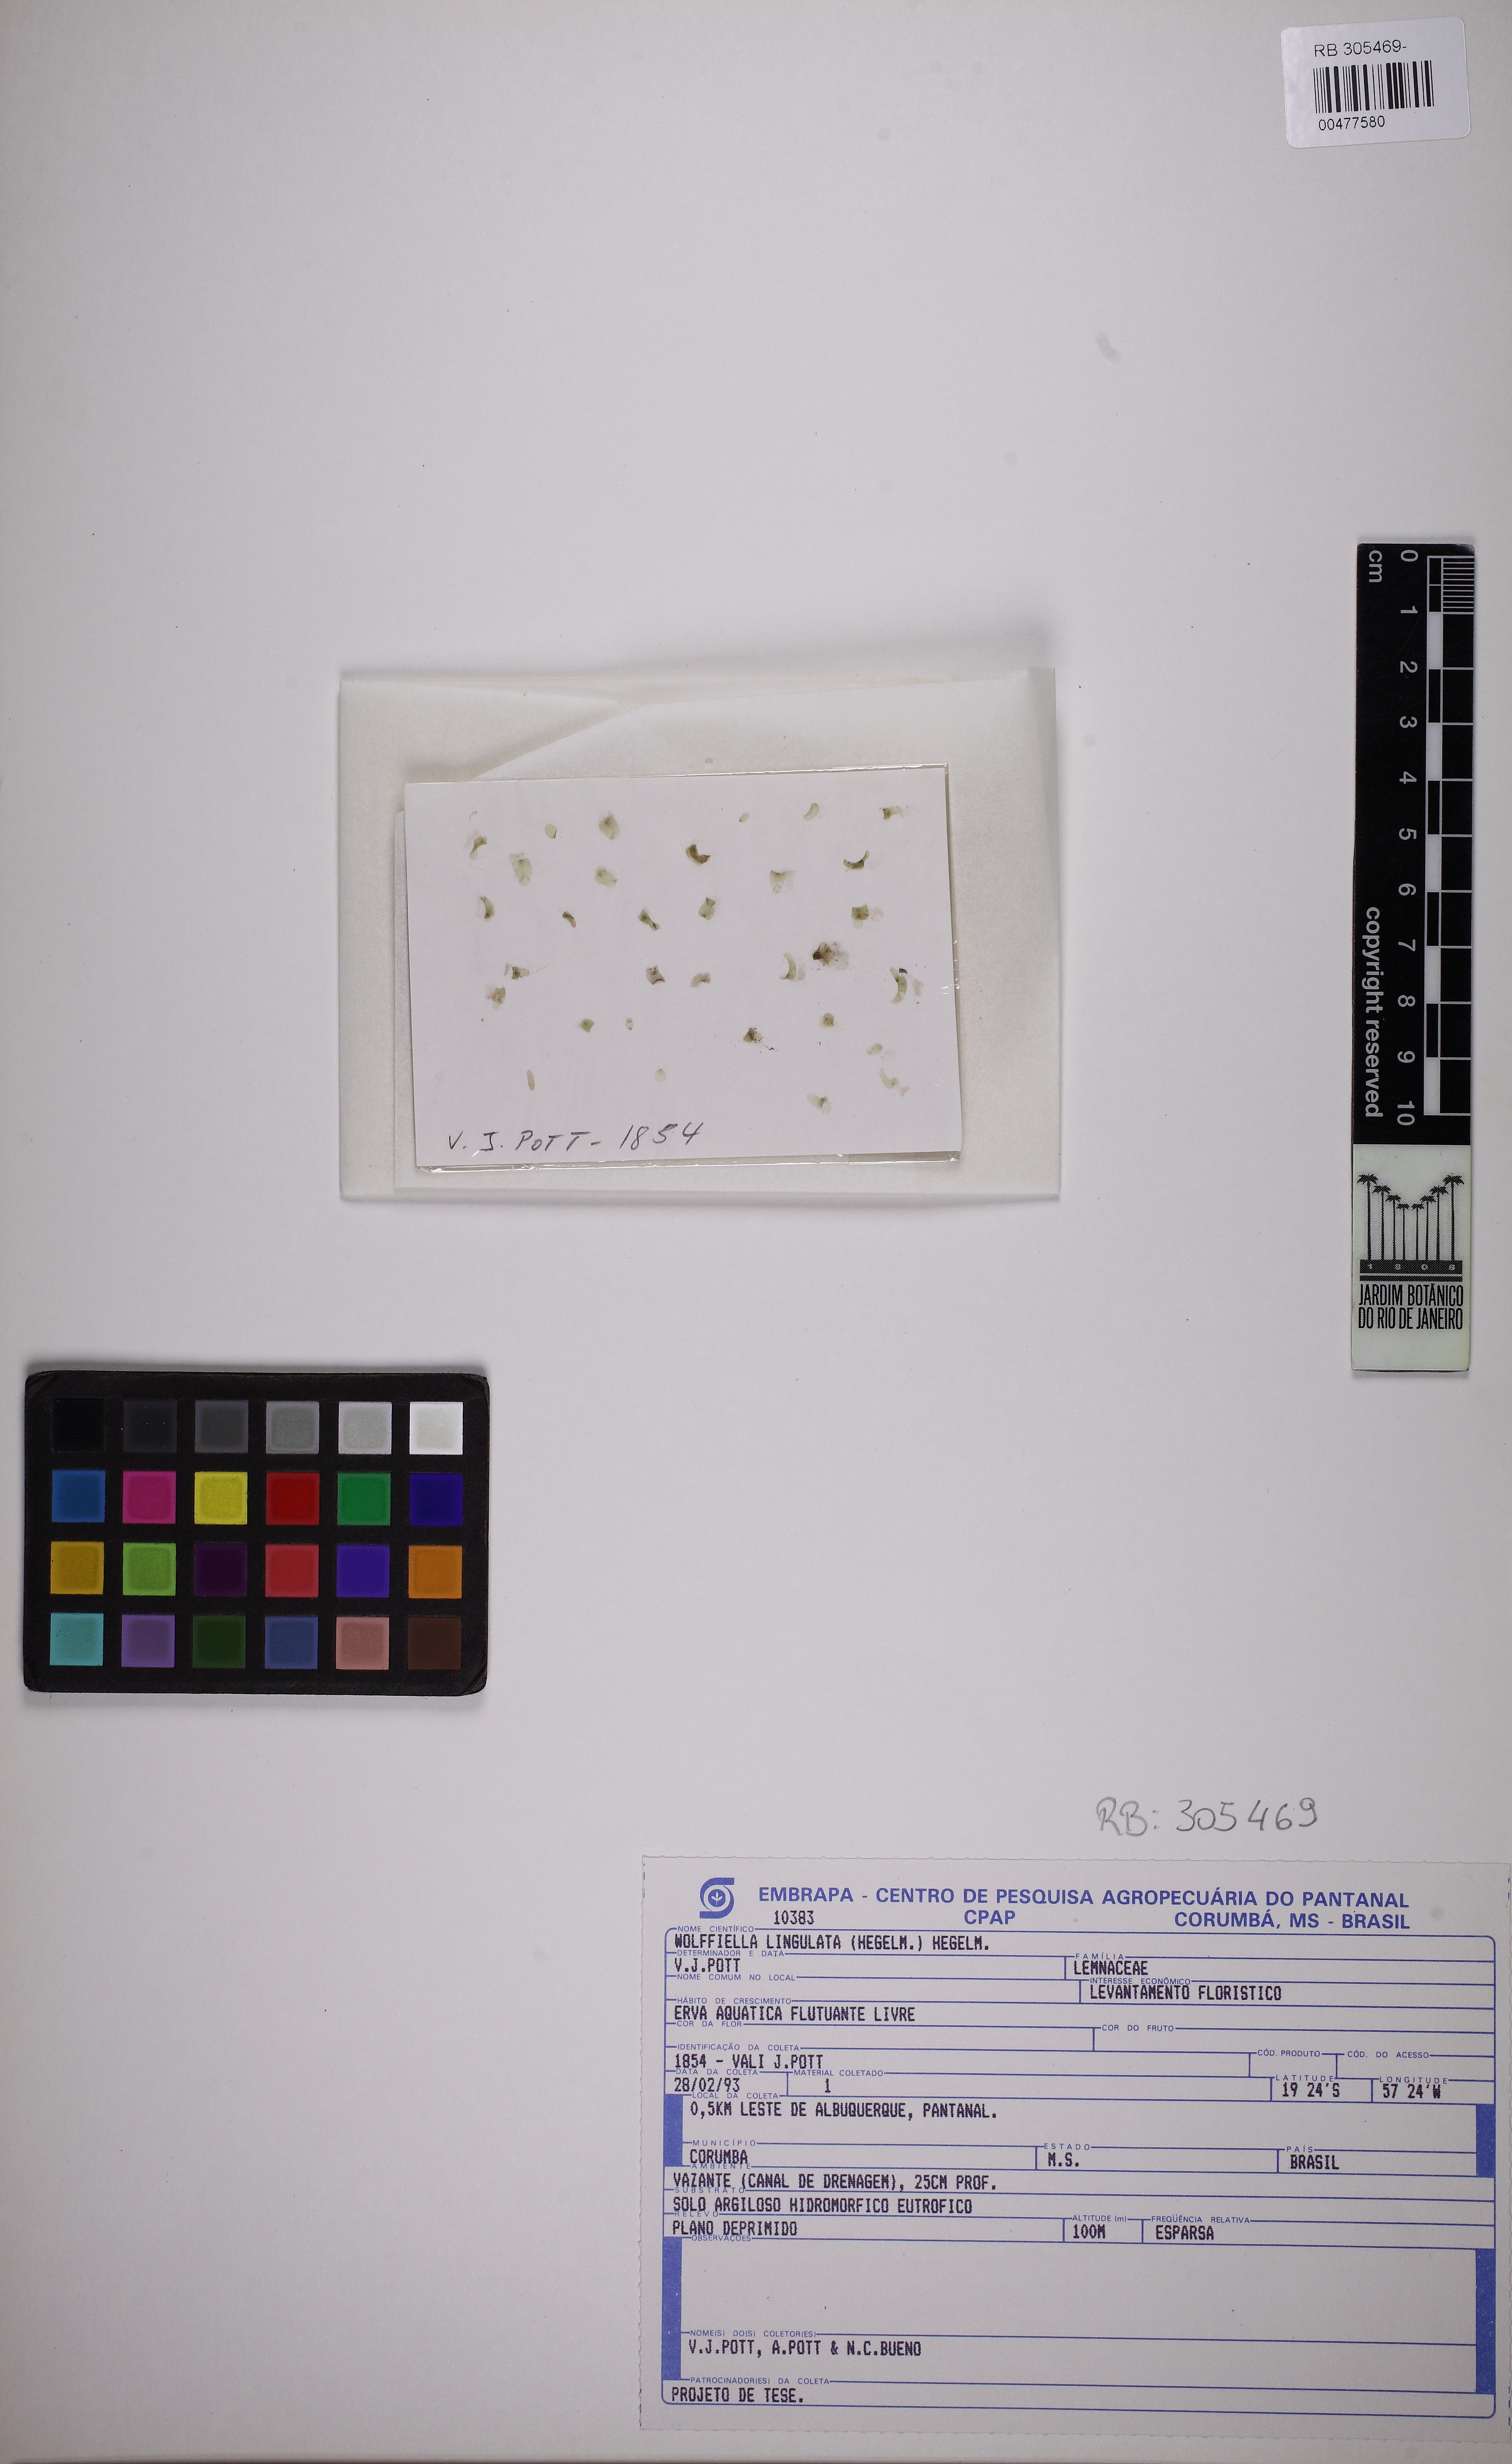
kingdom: Plantae
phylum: Tracheophyta
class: Liliopsida
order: Alismatales
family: Araceae
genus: Wolffiella
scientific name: Wolffiella lingulata
